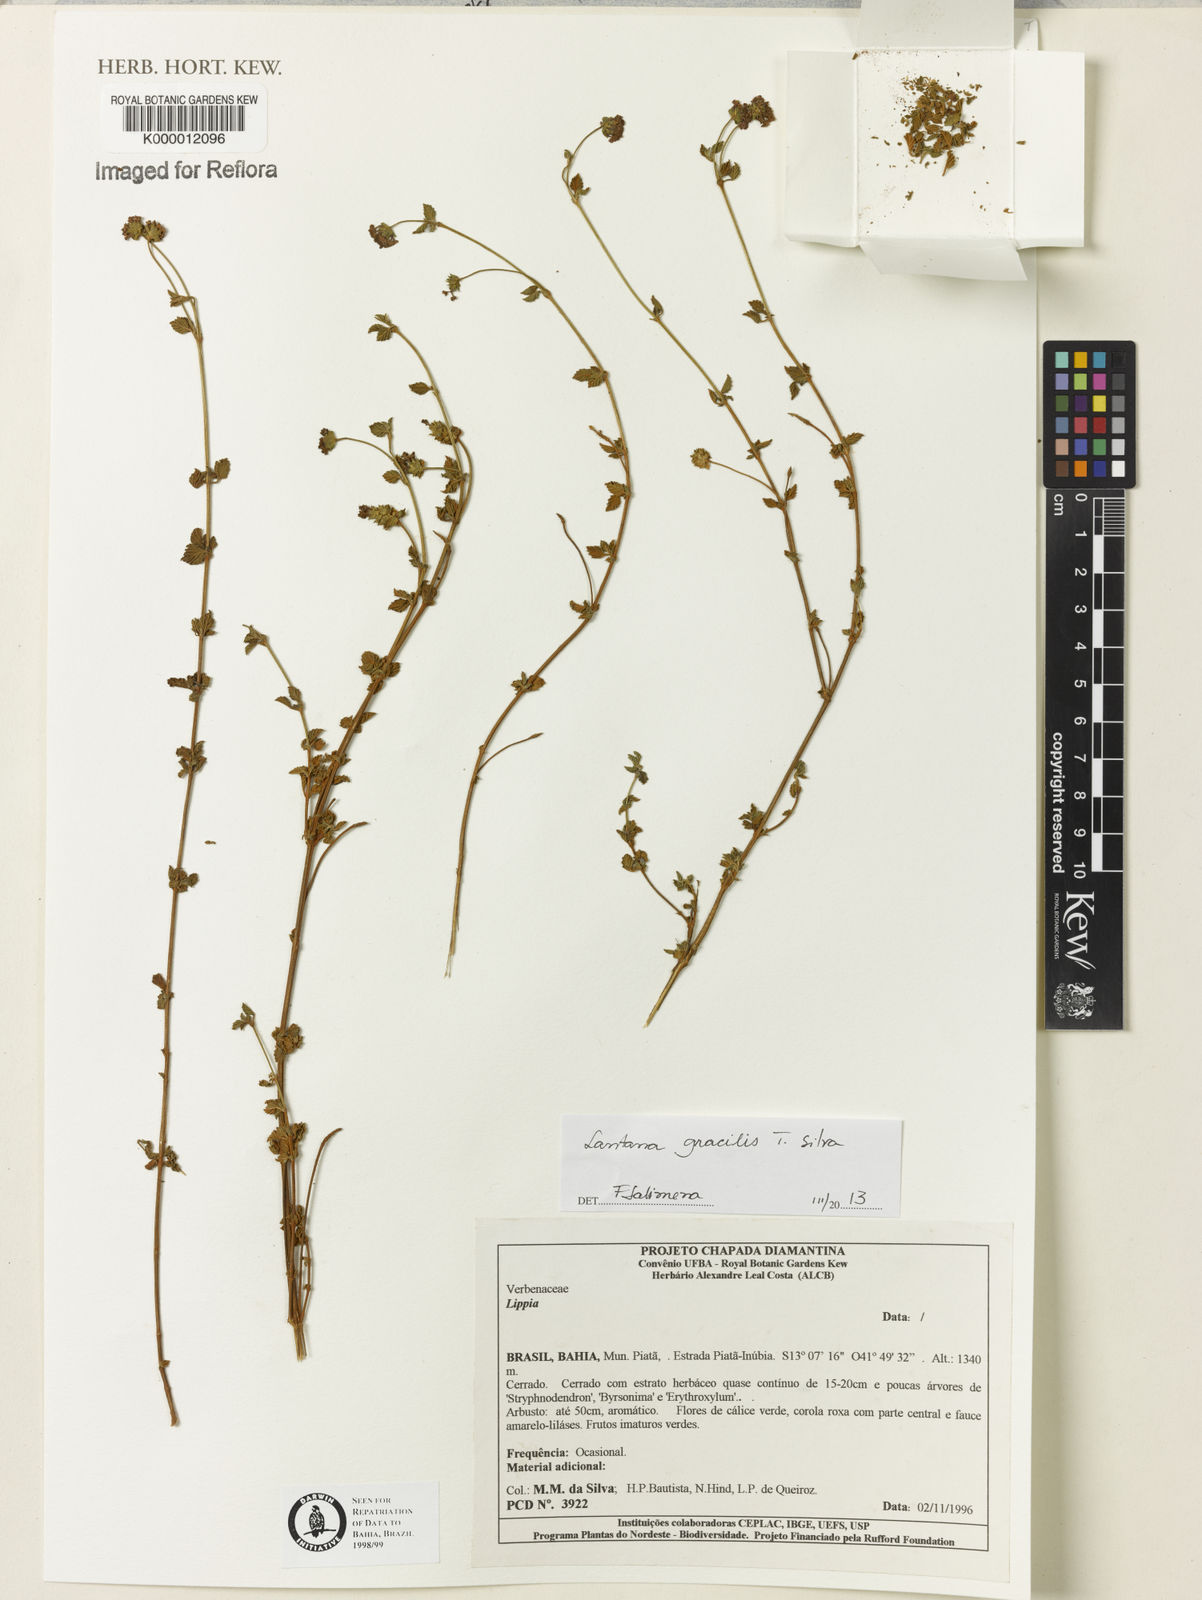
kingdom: Plantae
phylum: Tracheophyta
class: Magnoliopsida
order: Lamiales
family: Verbenaceae
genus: Lippia
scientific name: Lippia
